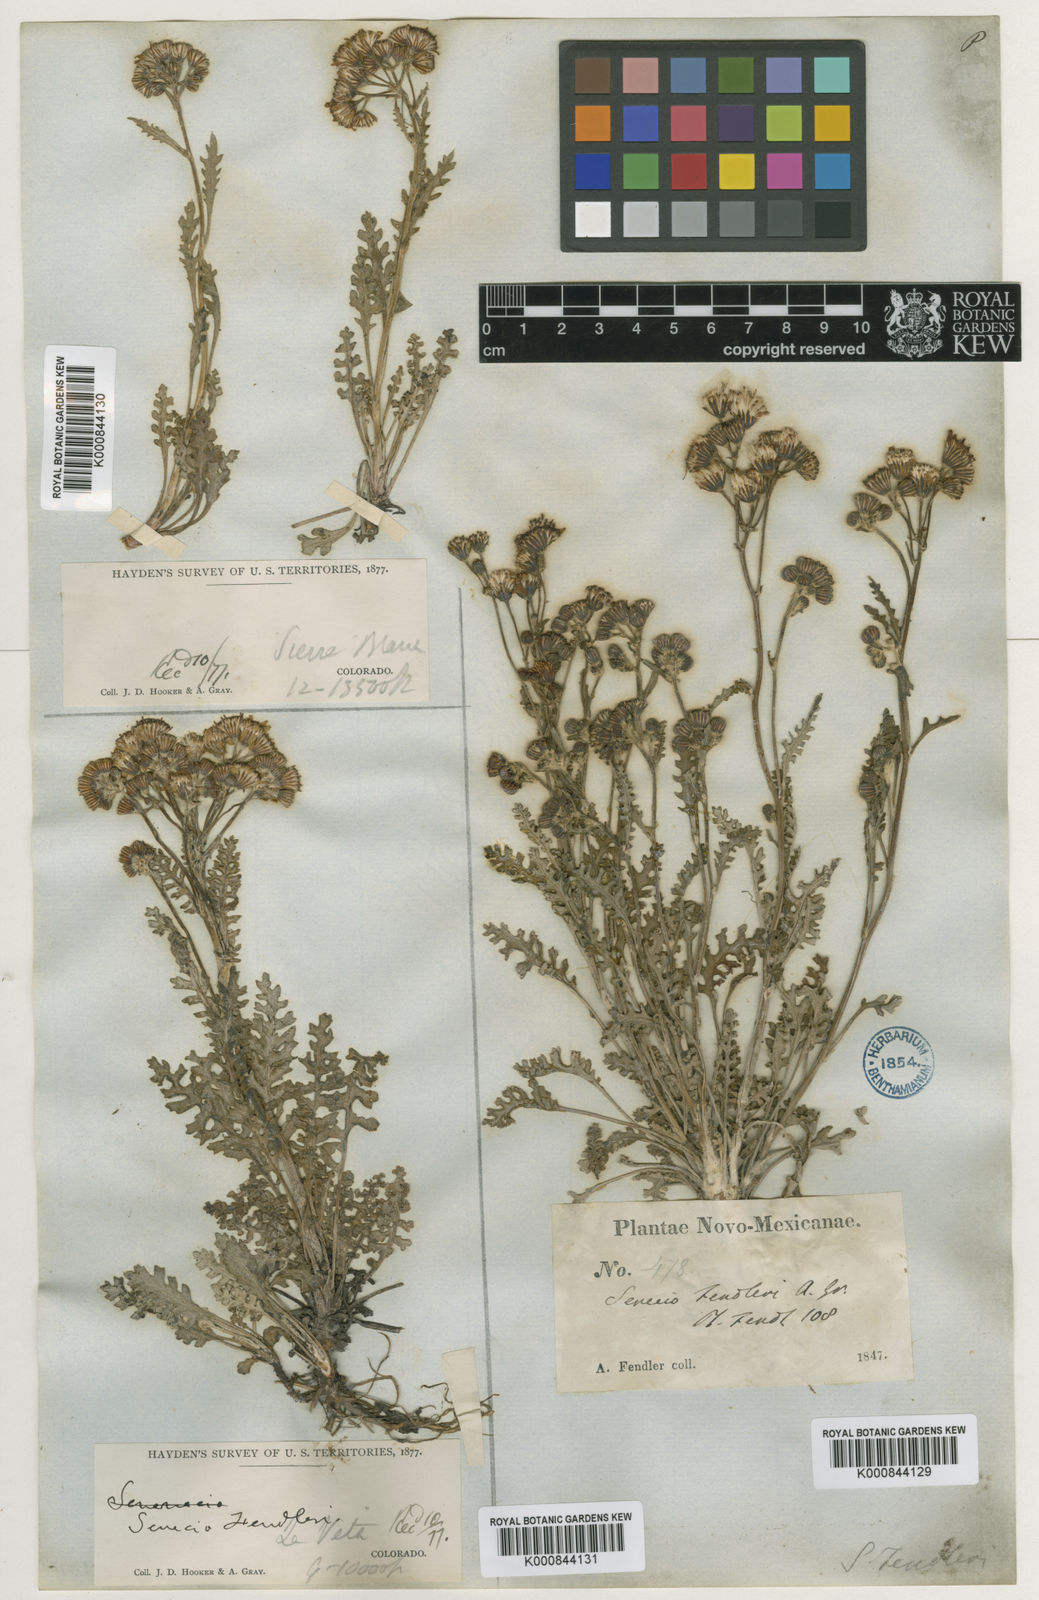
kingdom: Plantae
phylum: Tracheophyta
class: Magnoliopsida
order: Asterales
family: Asteraceae
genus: Packera
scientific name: Packera
